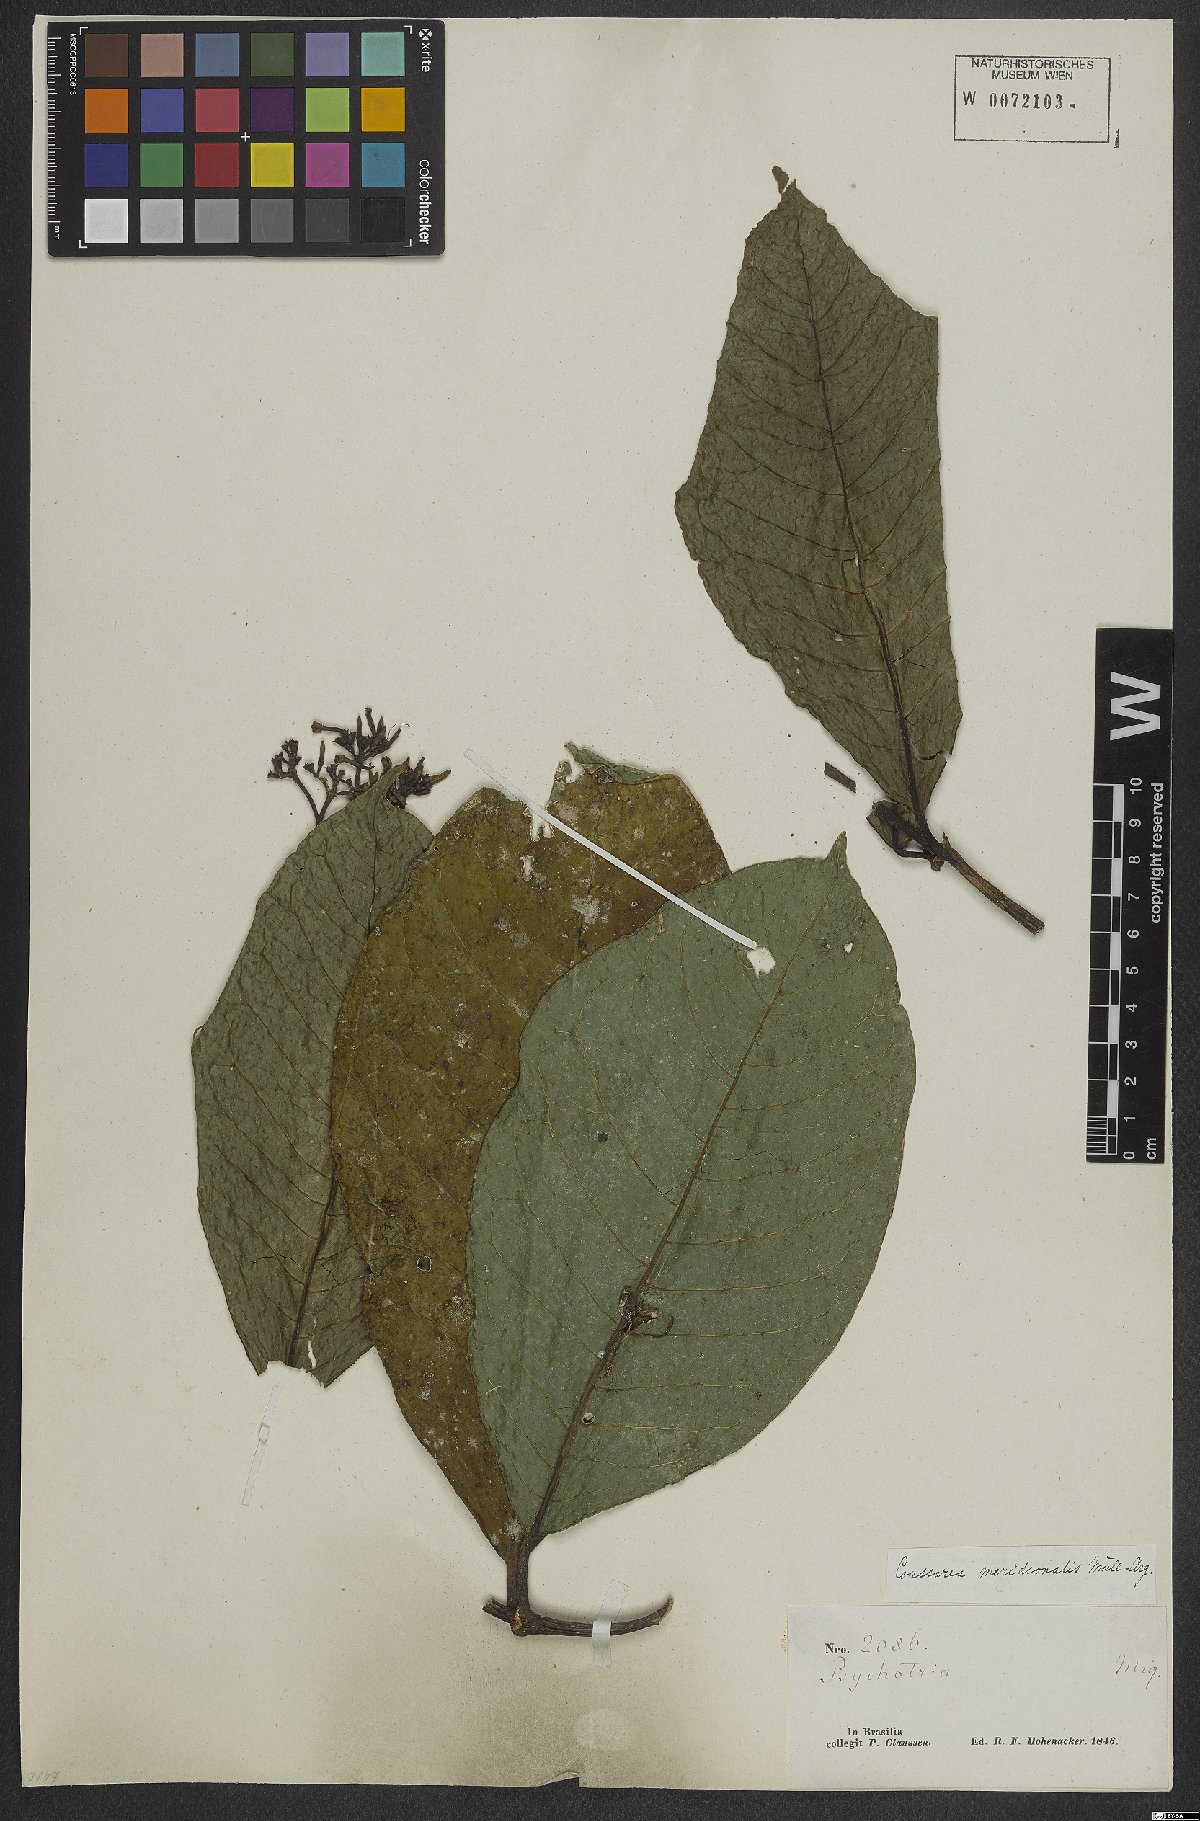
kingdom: Plantae
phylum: Tracheophyta
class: Magnoliopsida
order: Gentianales
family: Rubiaceae
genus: Coussarea
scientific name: Coussarea meridionalis
